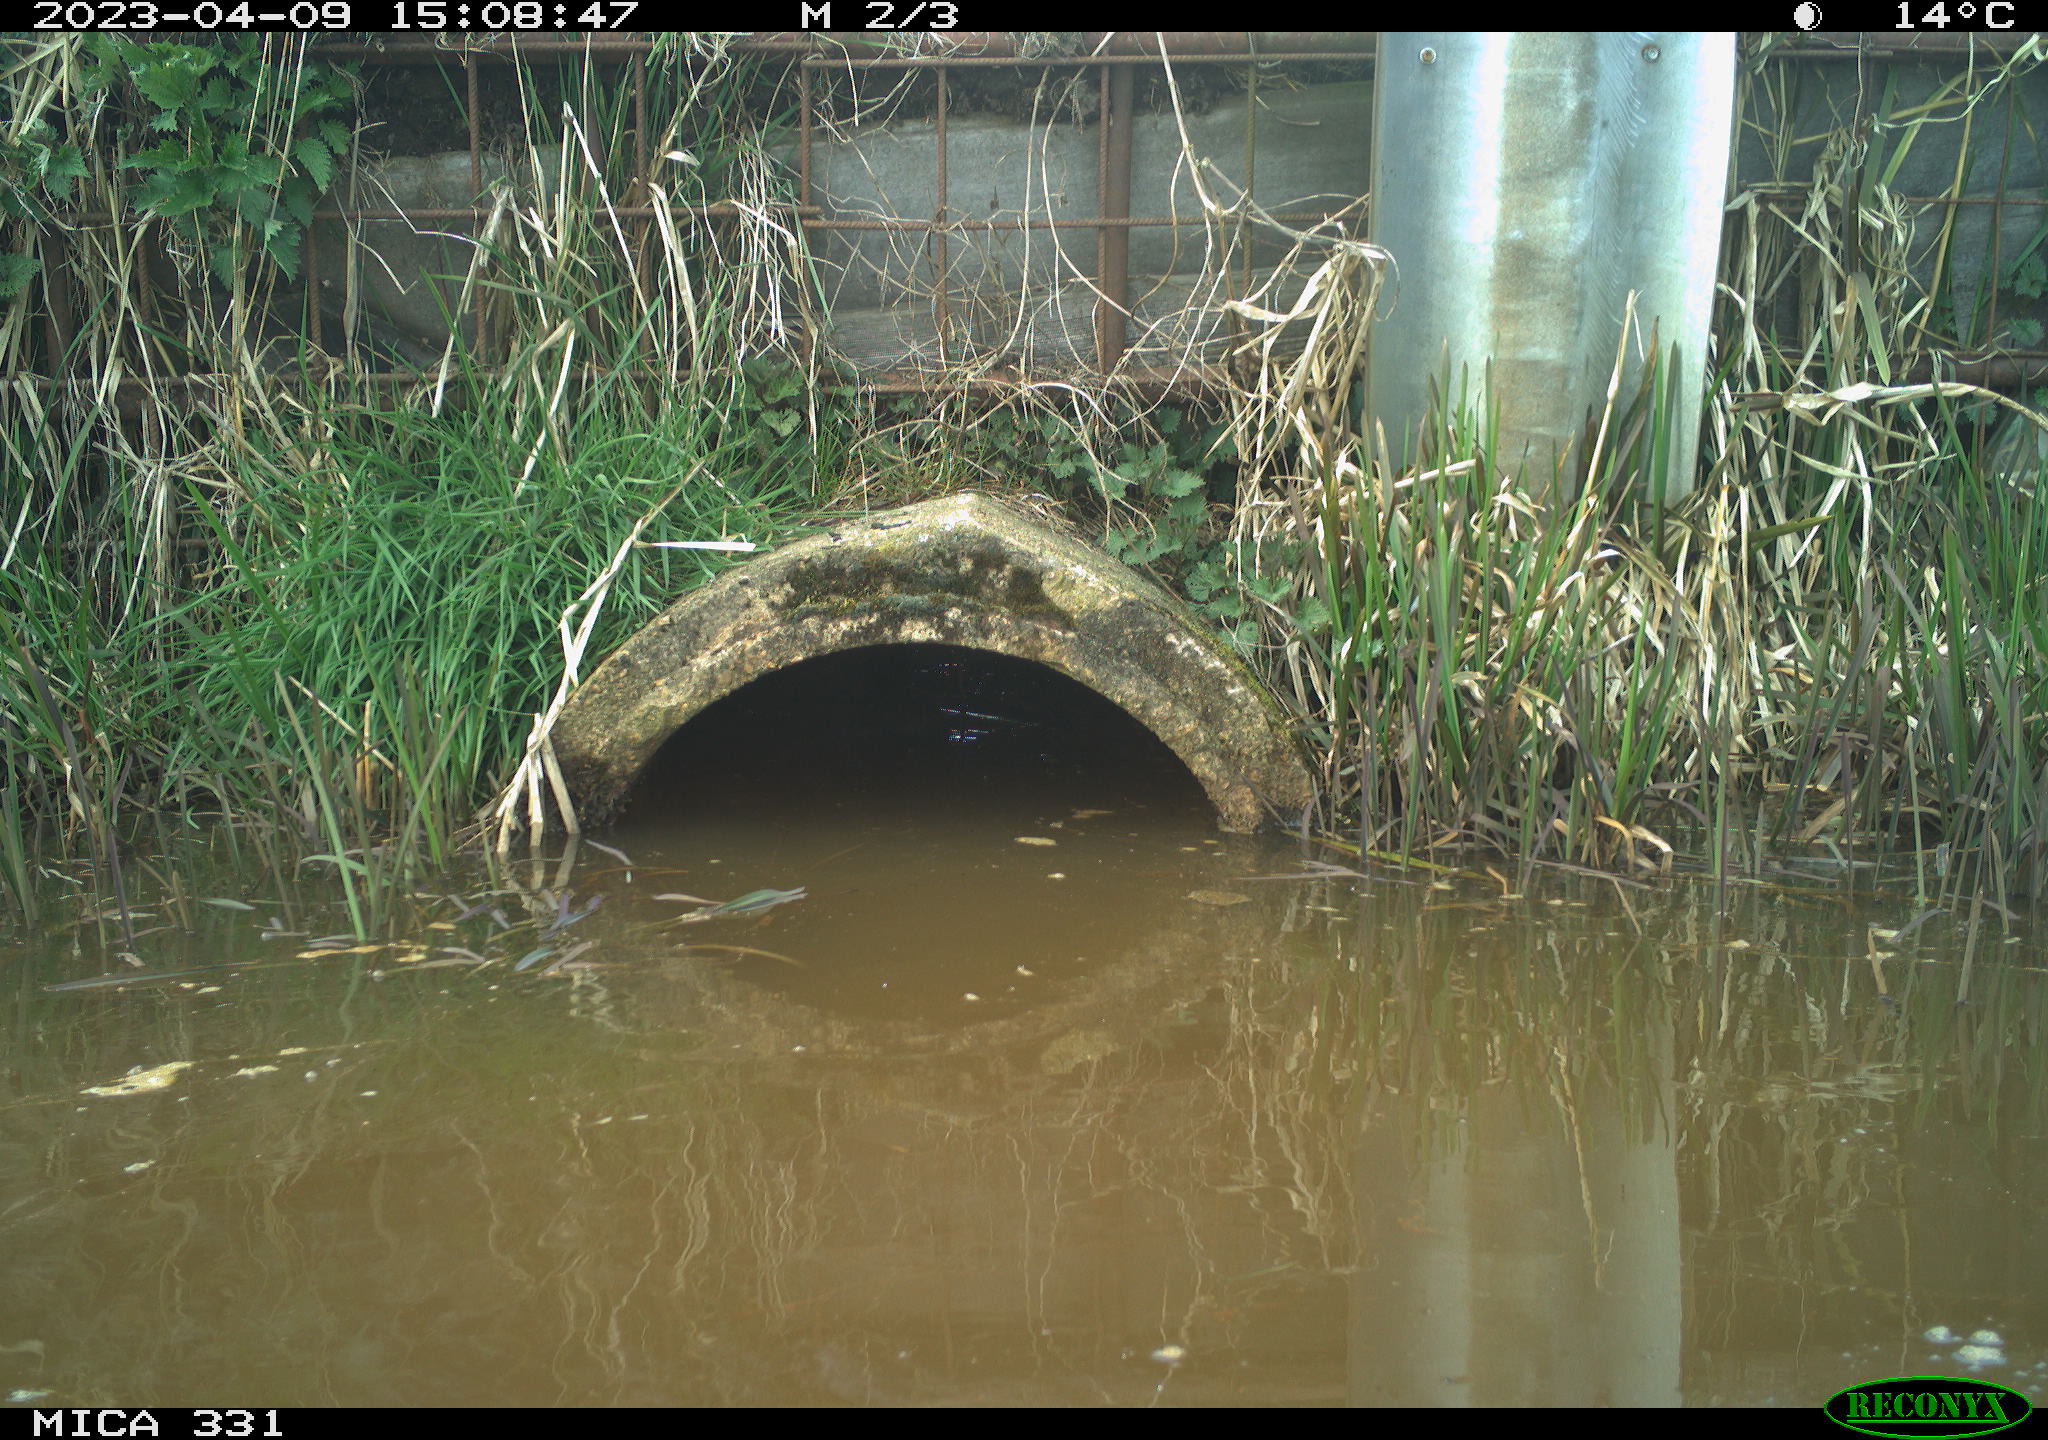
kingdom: Animalia
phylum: Chordata
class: Aves
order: Gruiformes
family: Rallidae
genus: Fulica
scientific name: Fulica atra
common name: Eurasian coot
